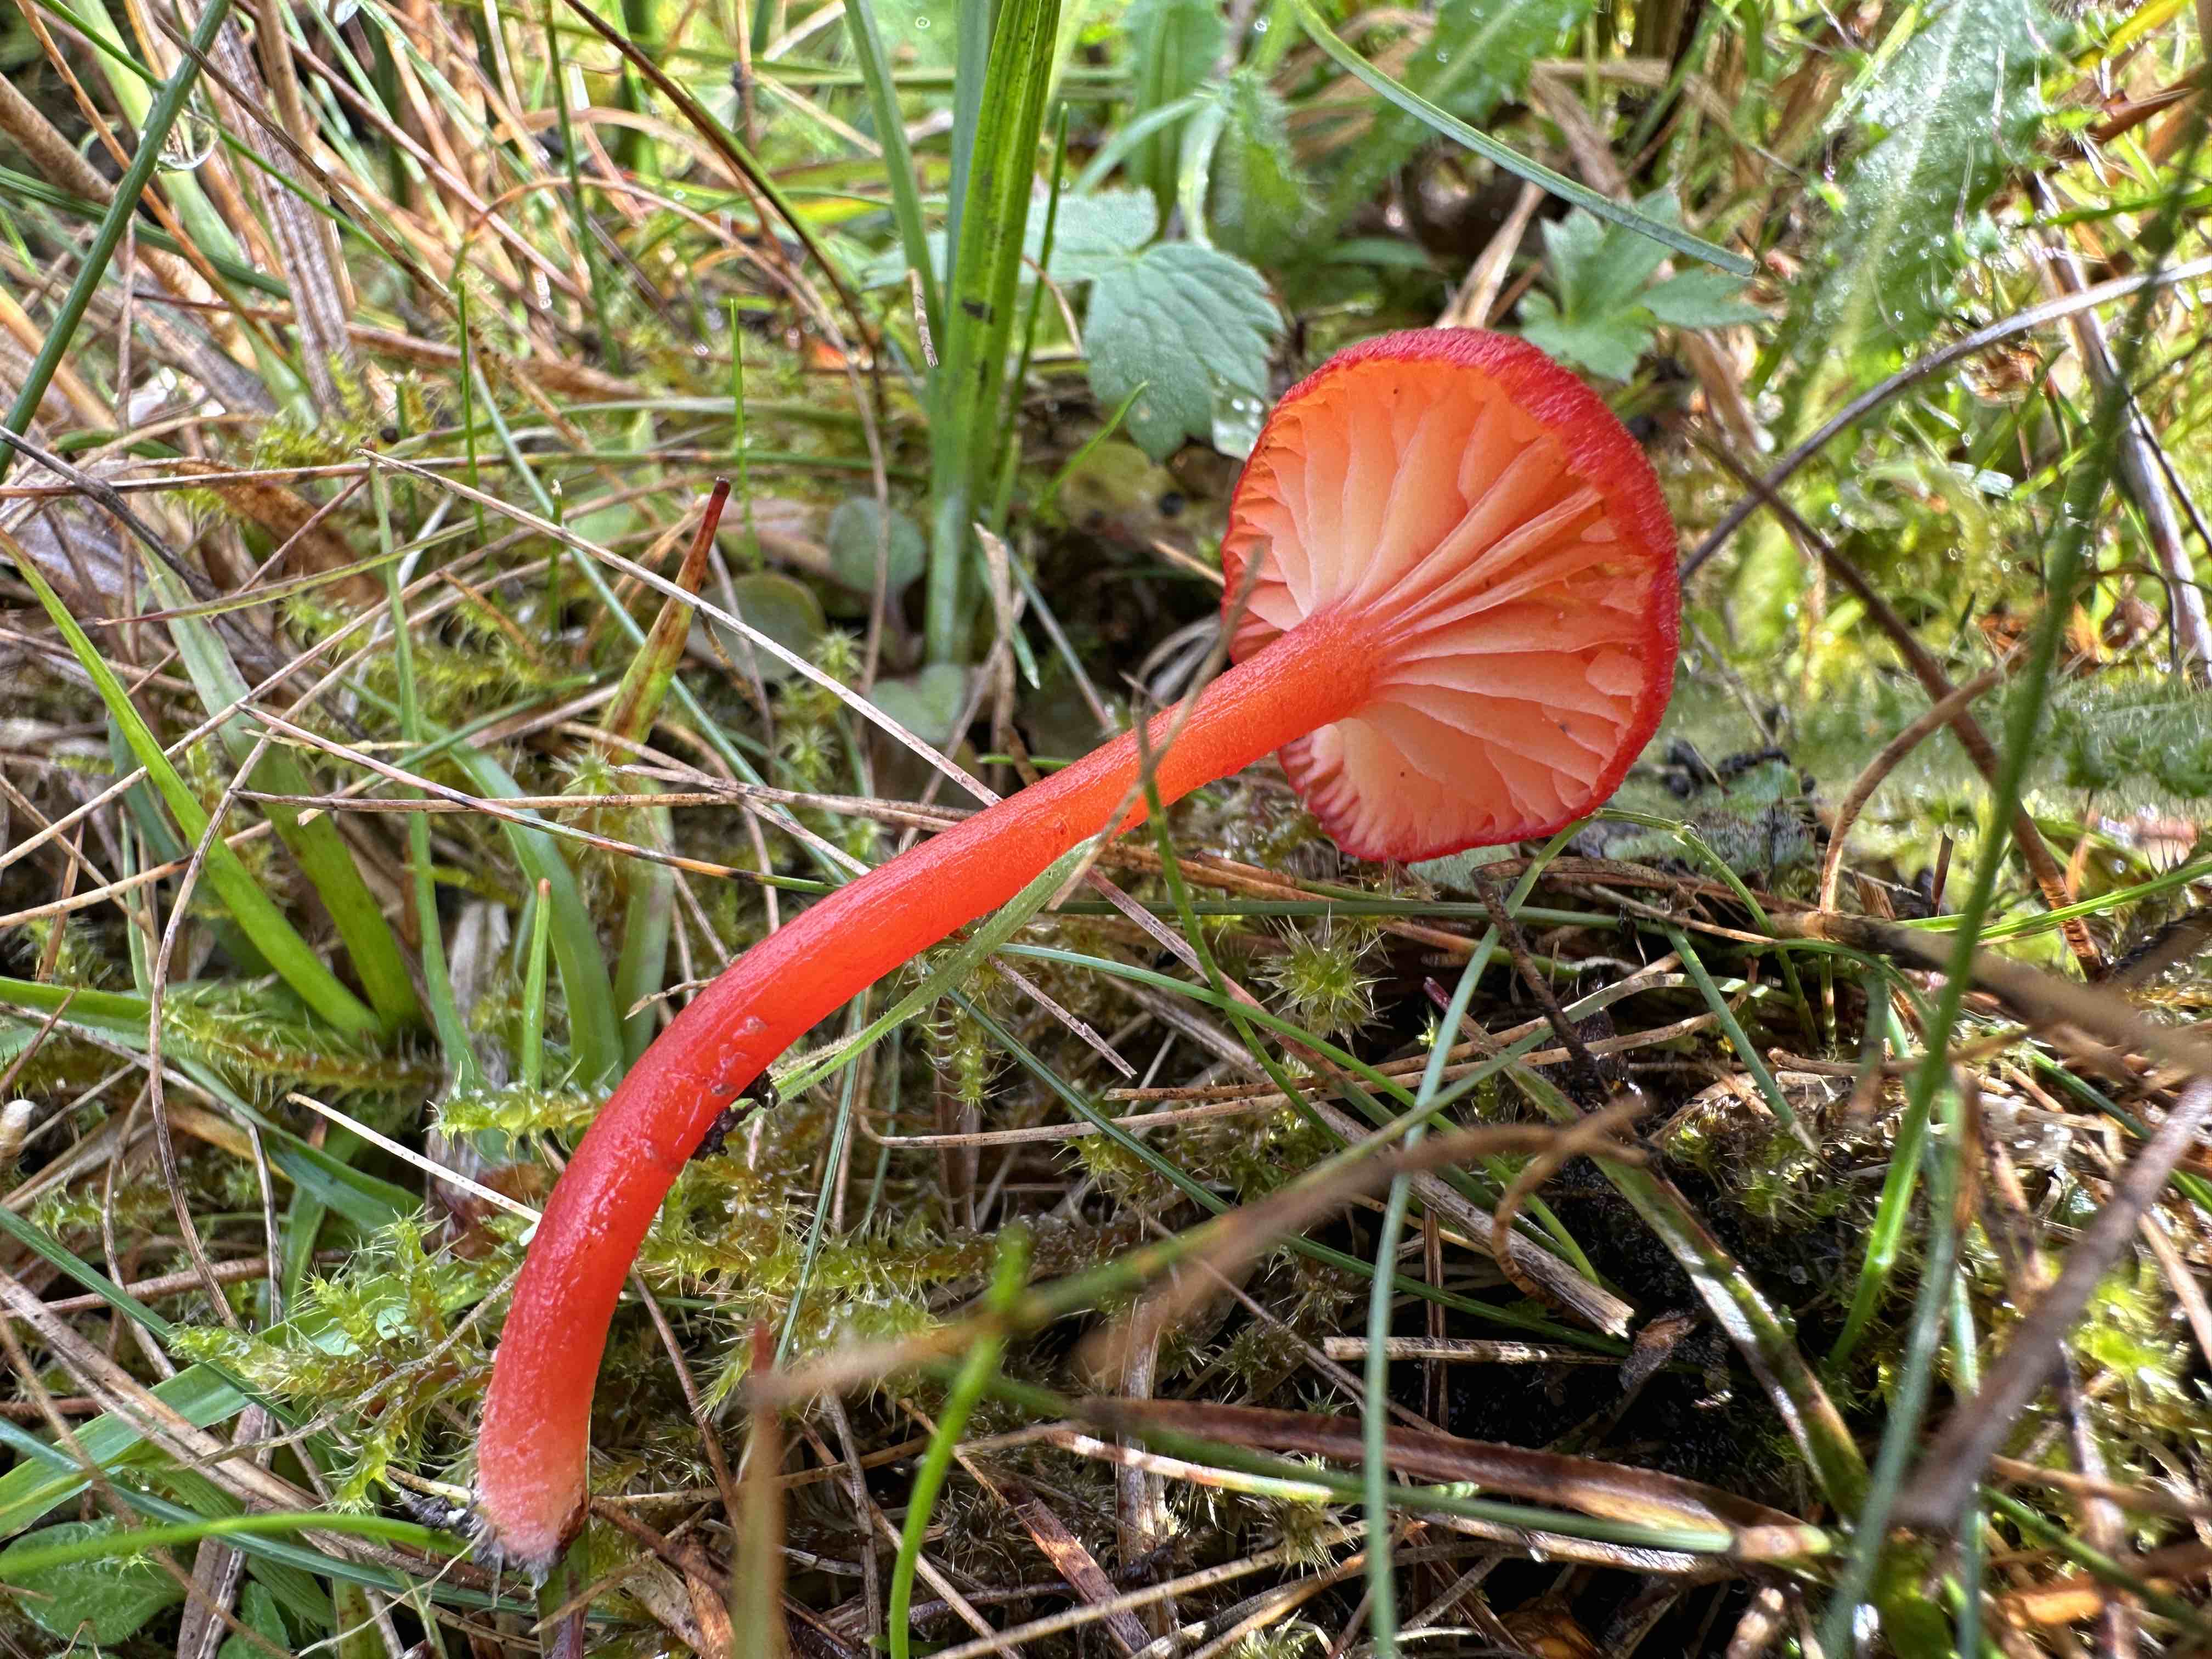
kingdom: Fungi
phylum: Basidiomycota
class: Agaricomycetes
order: Agaricales
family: Hygrophoraceae
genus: Hygrocybe
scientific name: Hygrocybe helobia
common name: hvidløgs-vokshat
